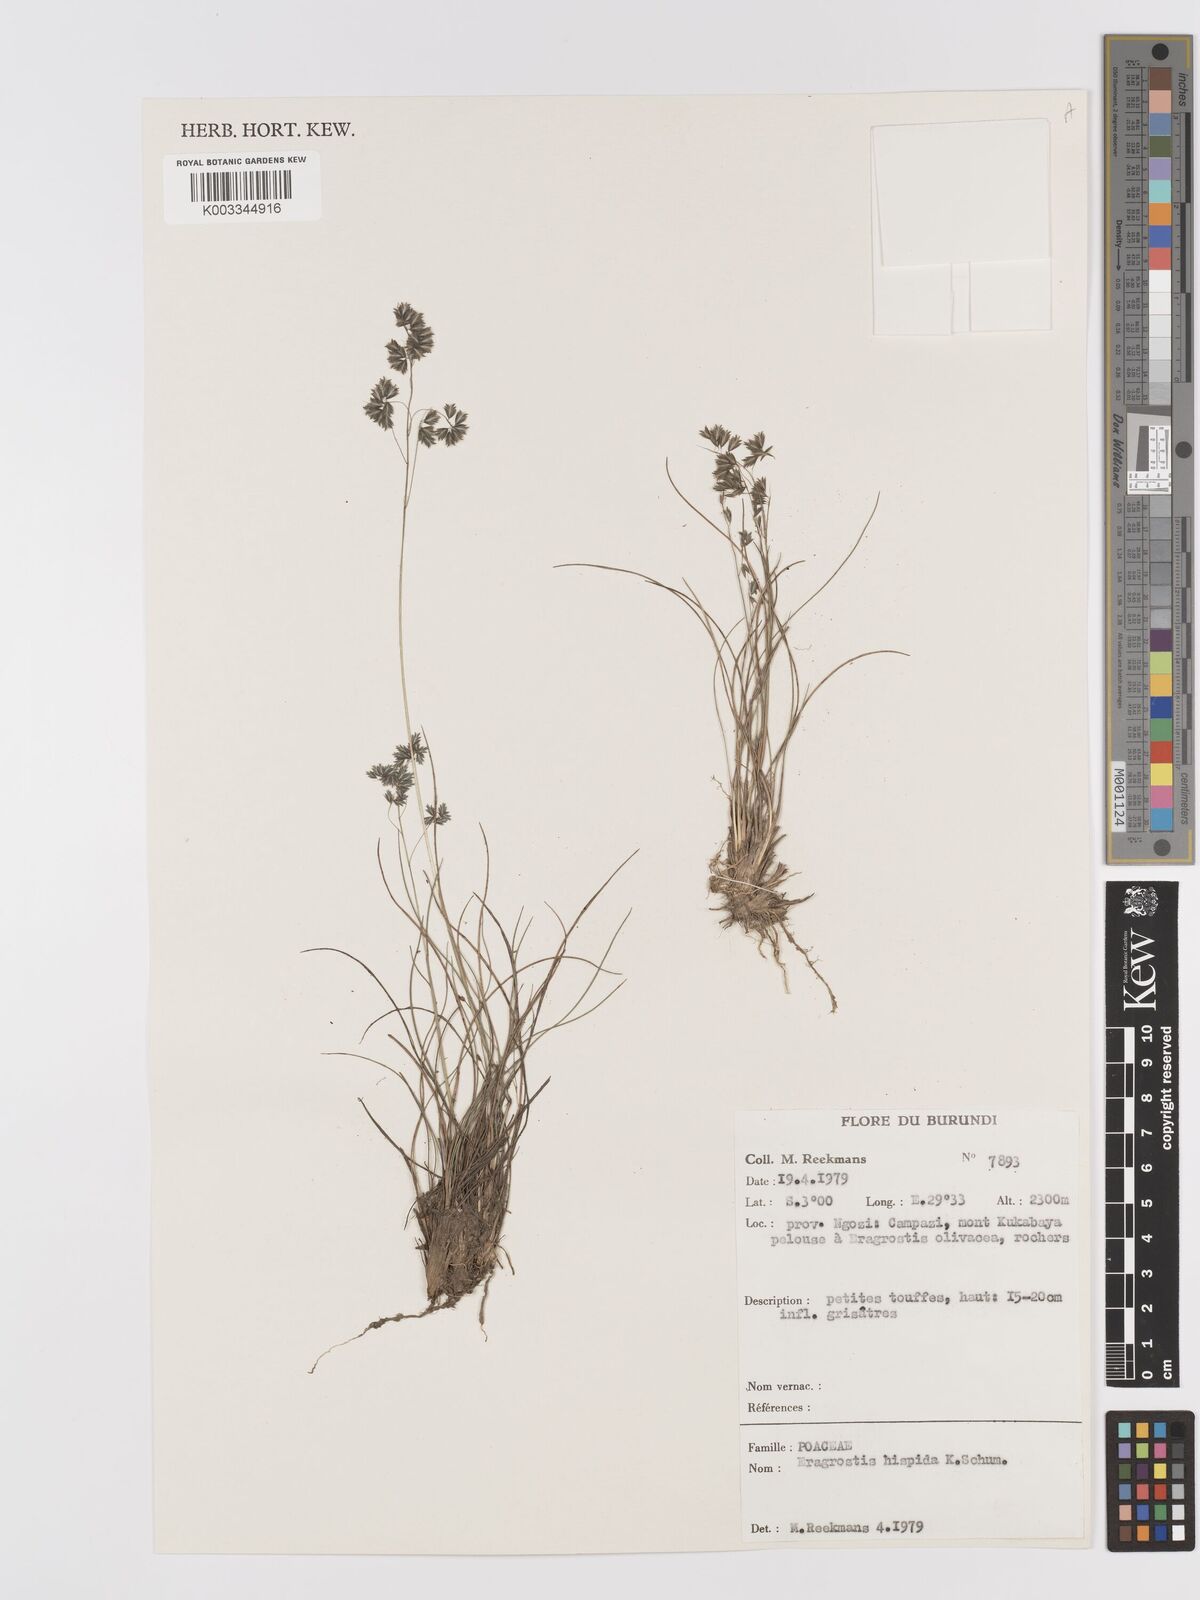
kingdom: Plantae
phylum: Tracheophyta
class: Liliopsida
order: Poales
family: Poaceae
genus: Eragrostis
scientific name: Eragrostis hispida
